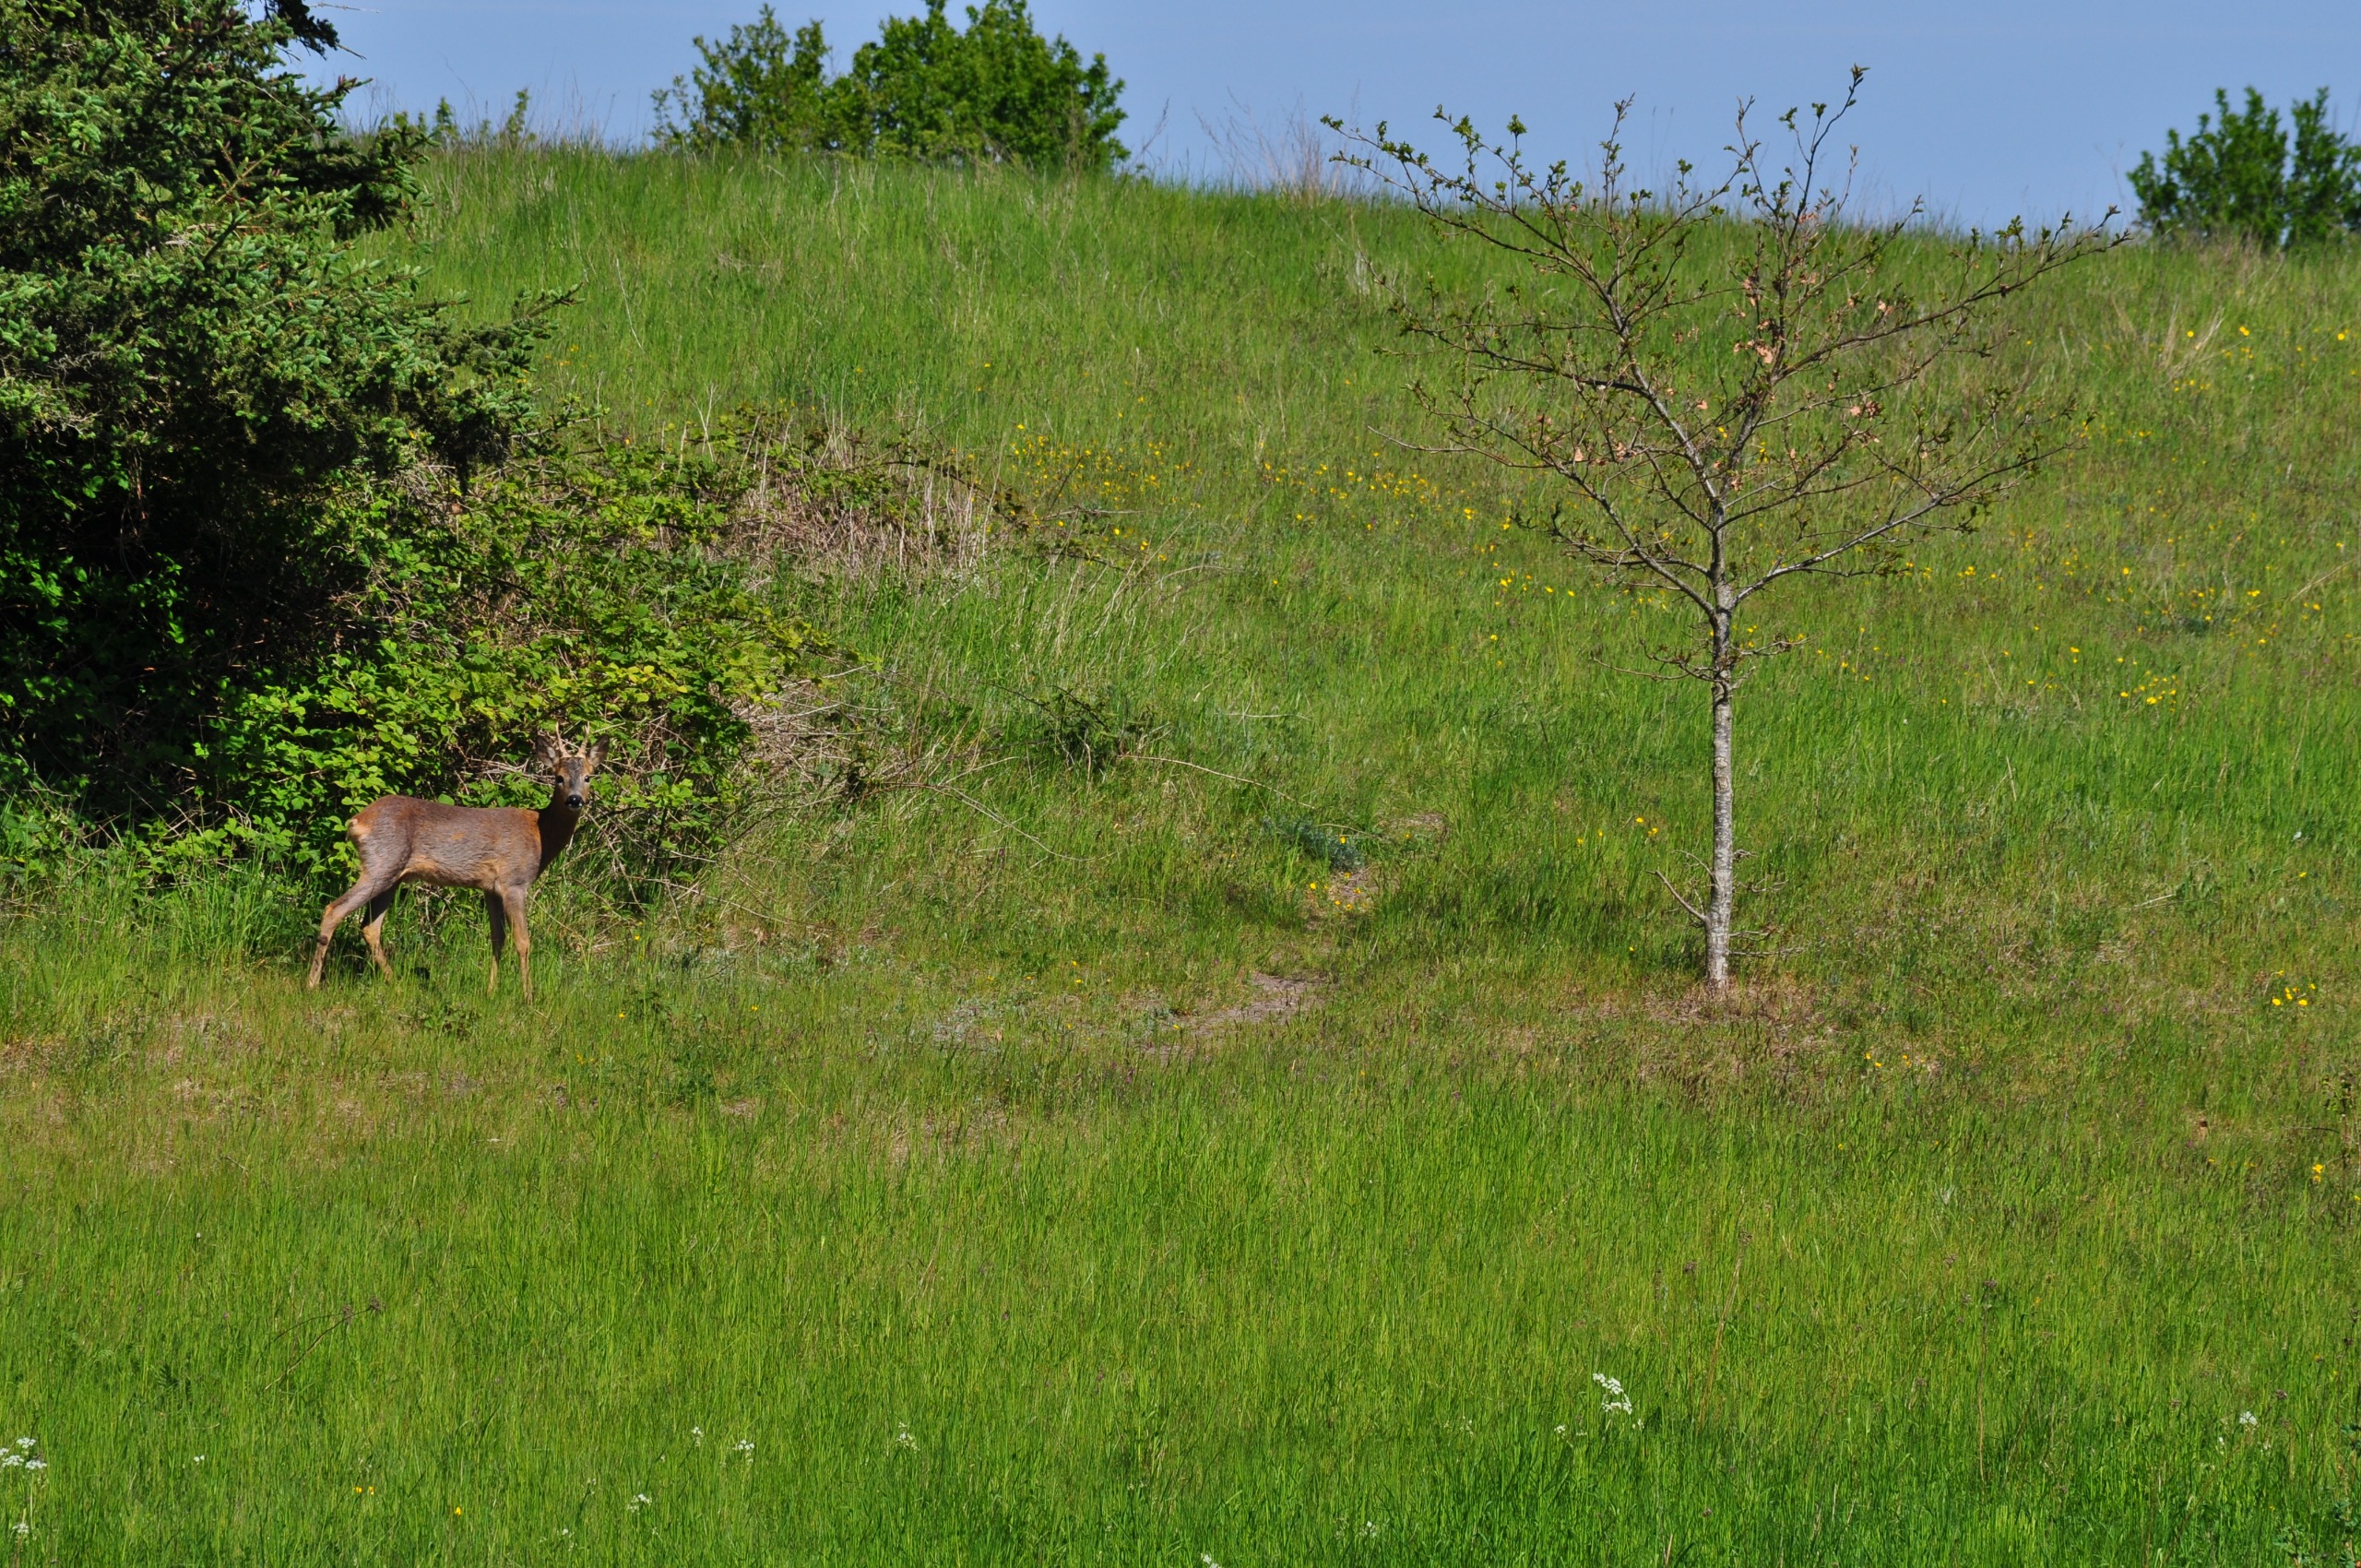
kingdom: Animalia
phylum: Chordata
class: Mammalia
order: Artiodactyla
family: Cervidae
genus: Capreolus
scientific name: Capreolus capreolus
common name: Rådyr
